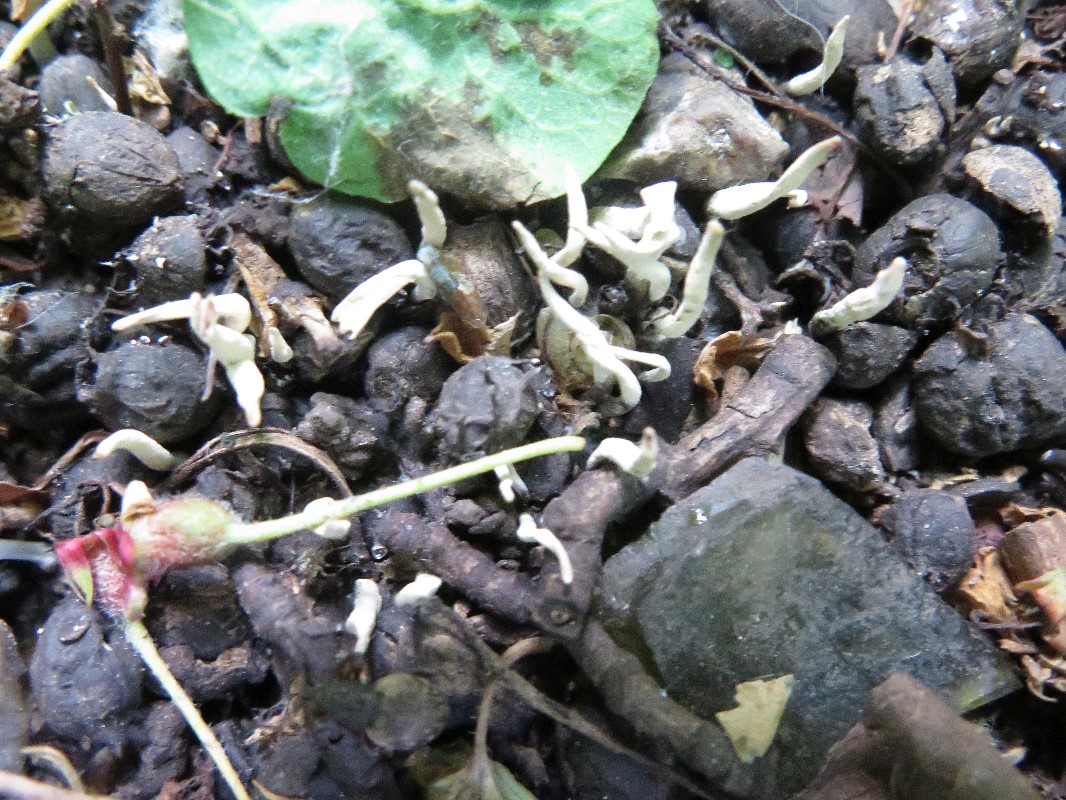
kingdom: Fungi
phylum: Ascomycota
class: Sordariomycetes
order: Xylariales
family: Xylariaceae
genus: Xylaria
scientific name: Xylaria oxyacanthae
